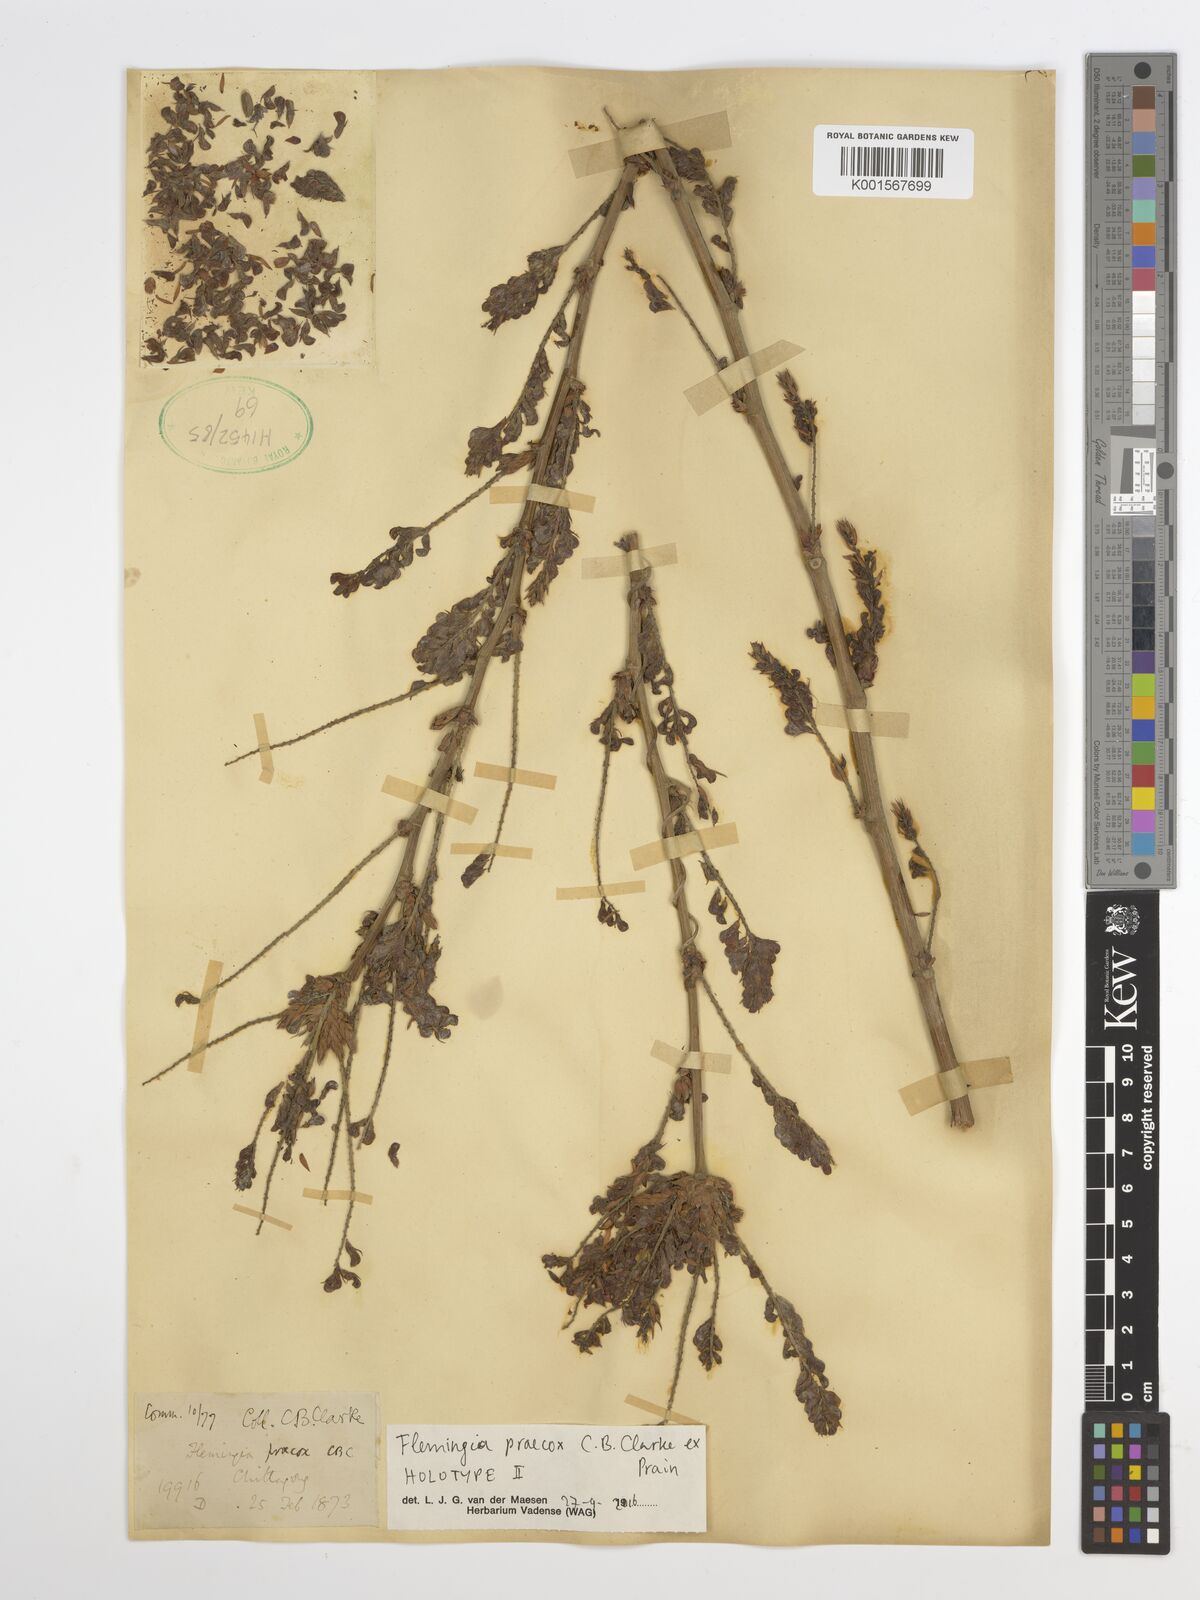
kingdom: Plantae
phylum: Tracheophyta
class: Magnoliopsida
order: Fabales
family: Fabaceae
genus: Flemingia
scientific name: Flemingia praecox
